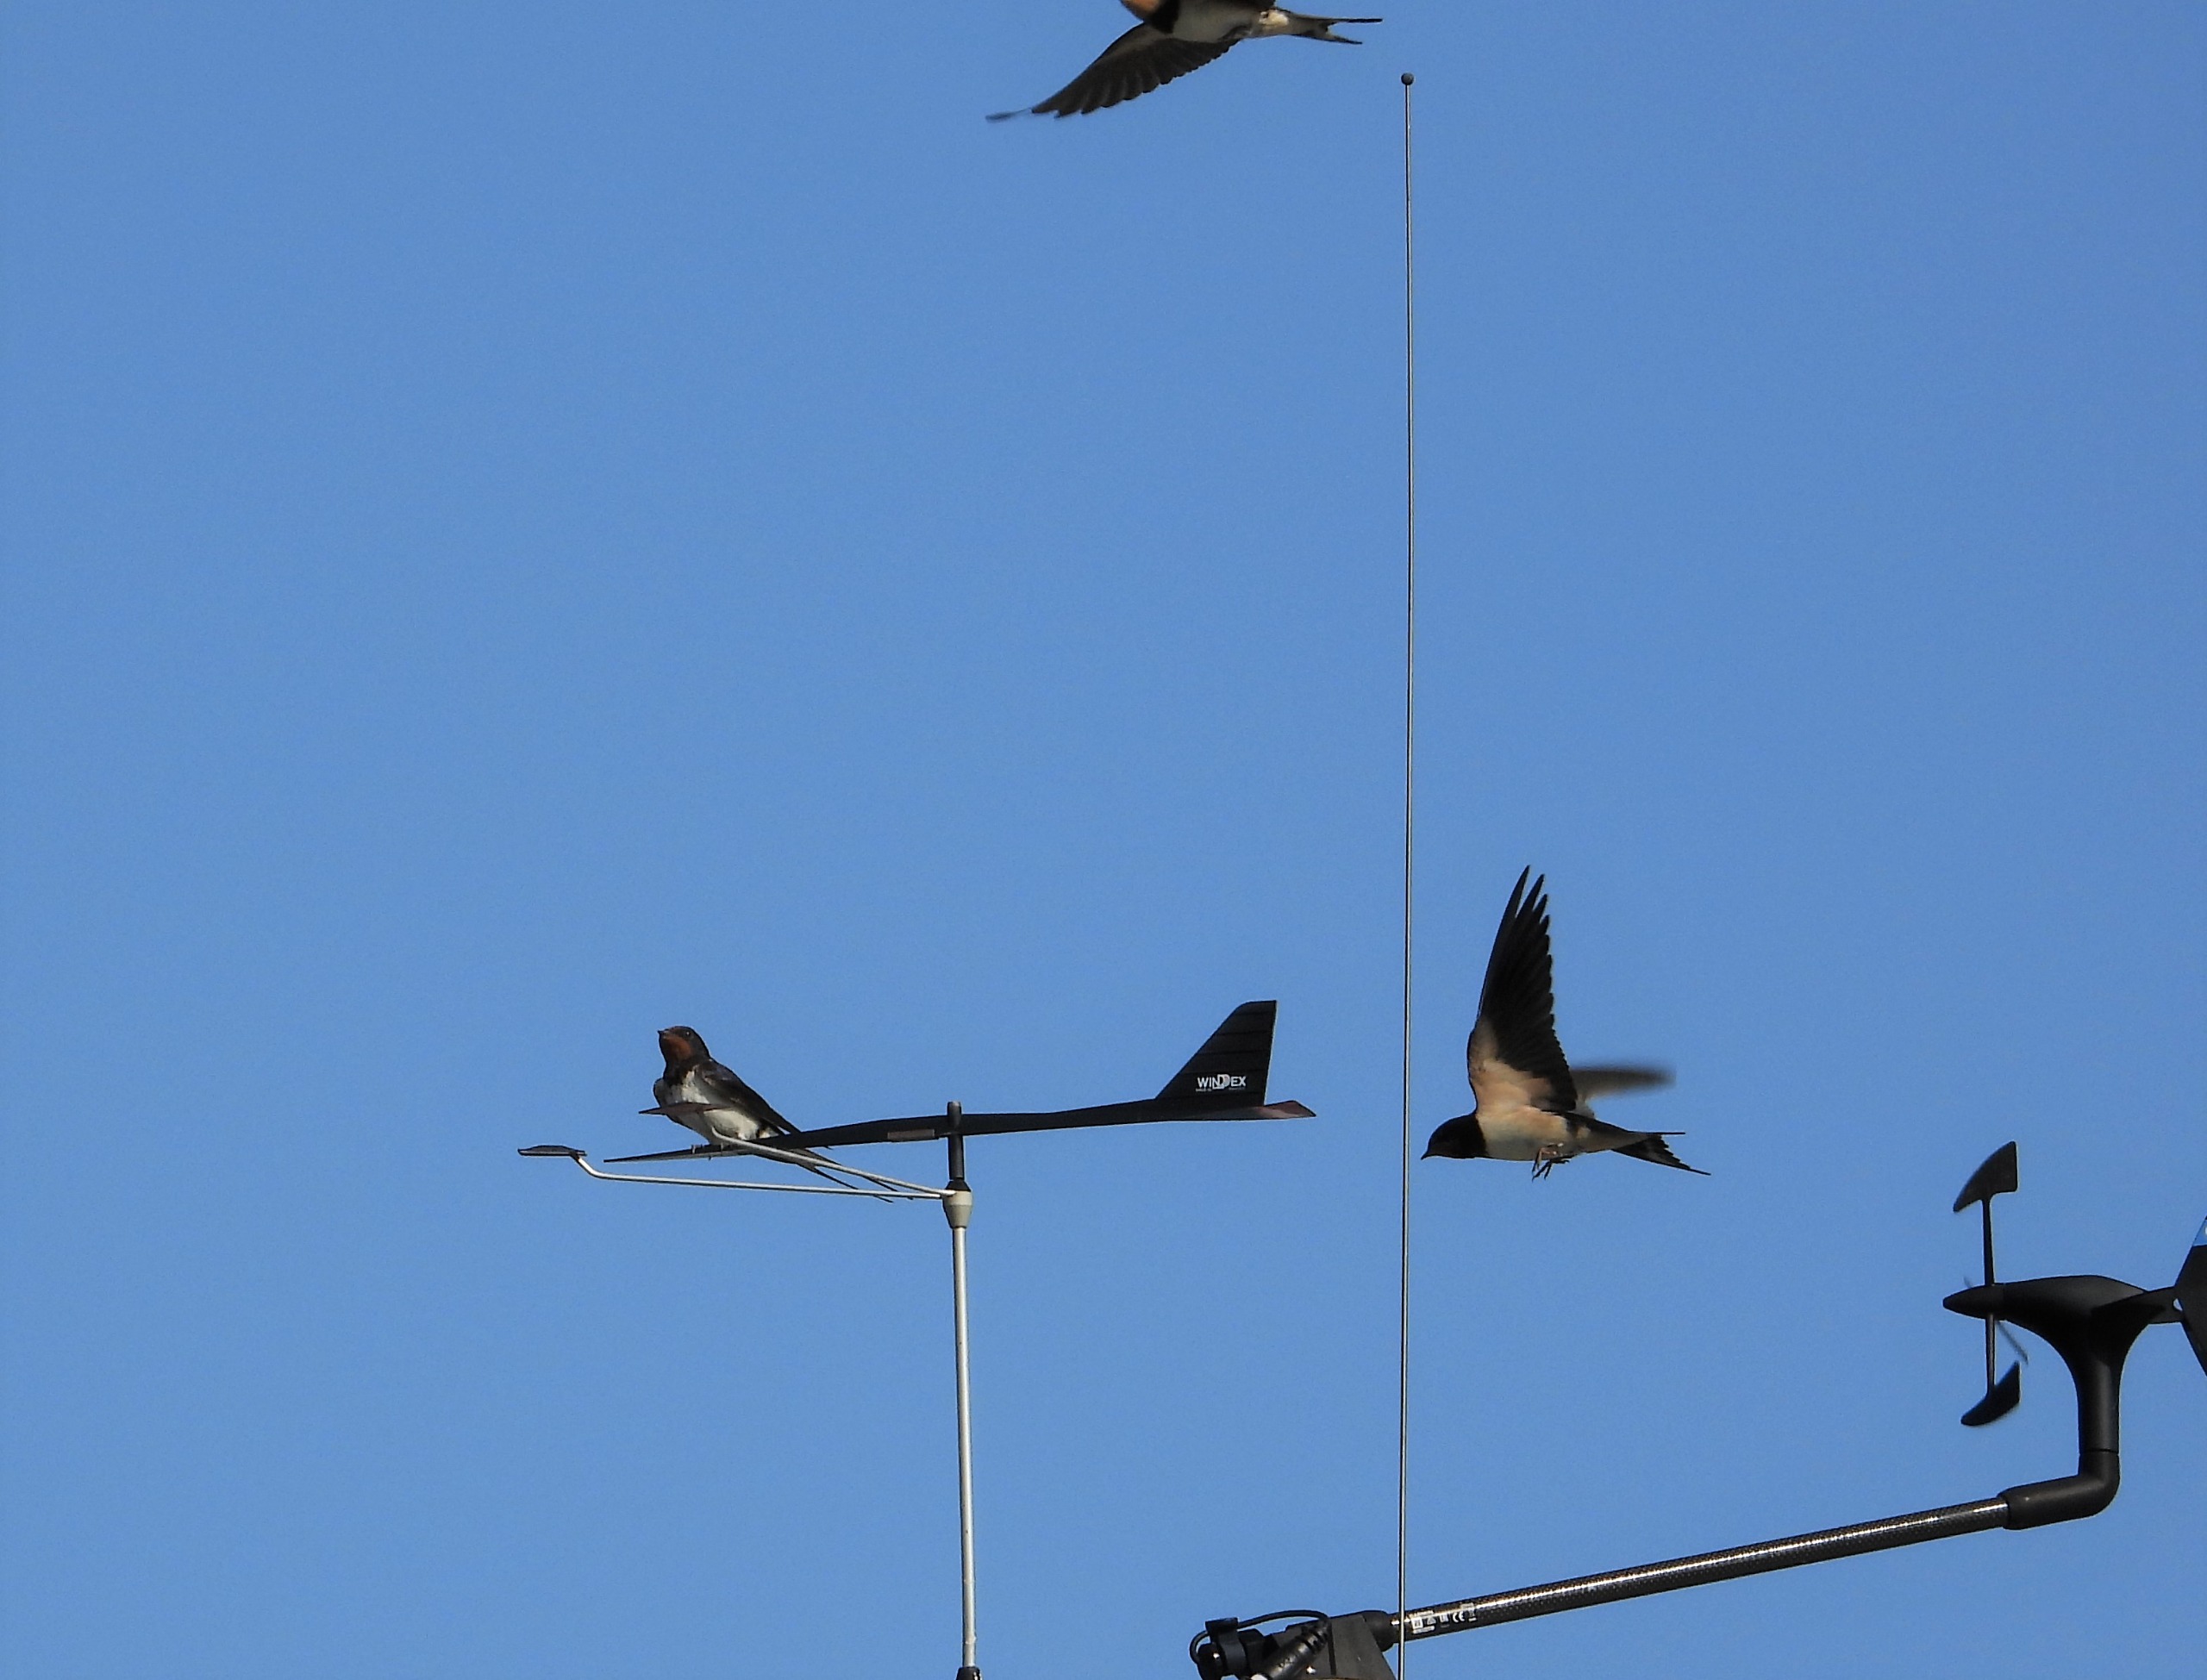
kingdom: Animalia
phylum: Chordata
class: Aves
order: Passeriformes
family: Hirundinidae
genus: Hirundo
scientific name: Hirundo rustica
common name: Landsvale
